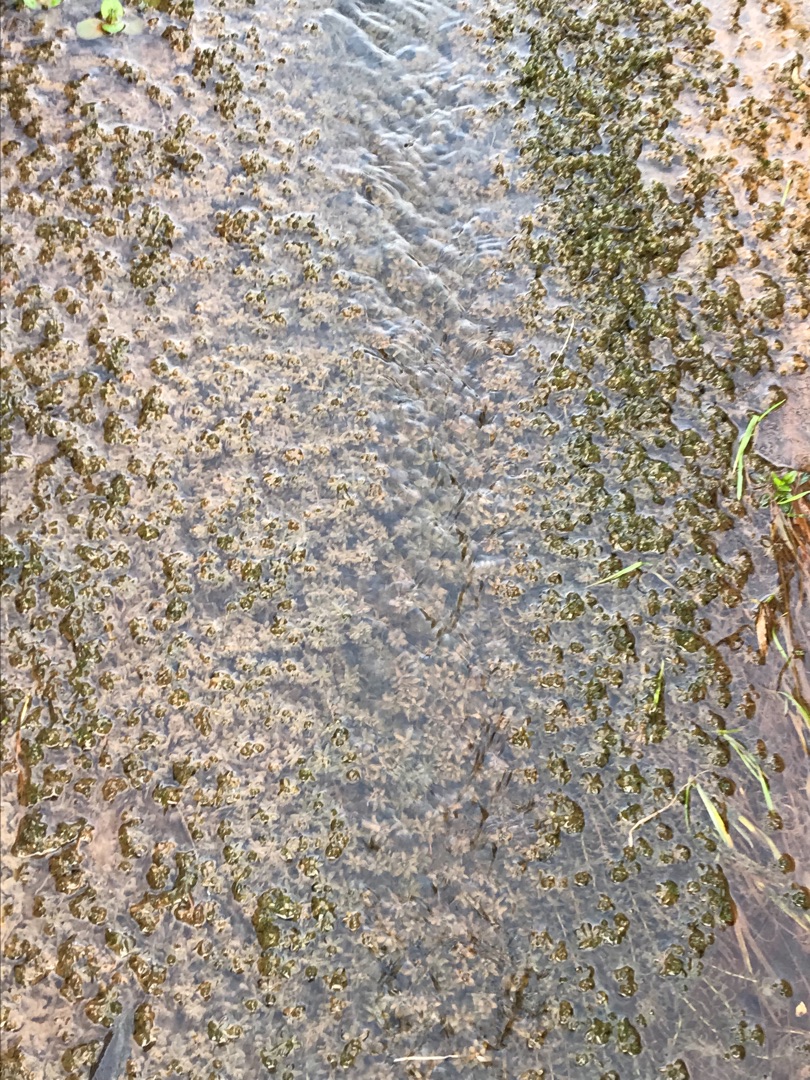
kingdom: Plantae
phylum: Tracheophyta
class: Liliopsida
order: Alismatales
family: Hydrocharitaceae
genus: Elodea
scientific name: Elodea canadensis
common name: Vandpest
